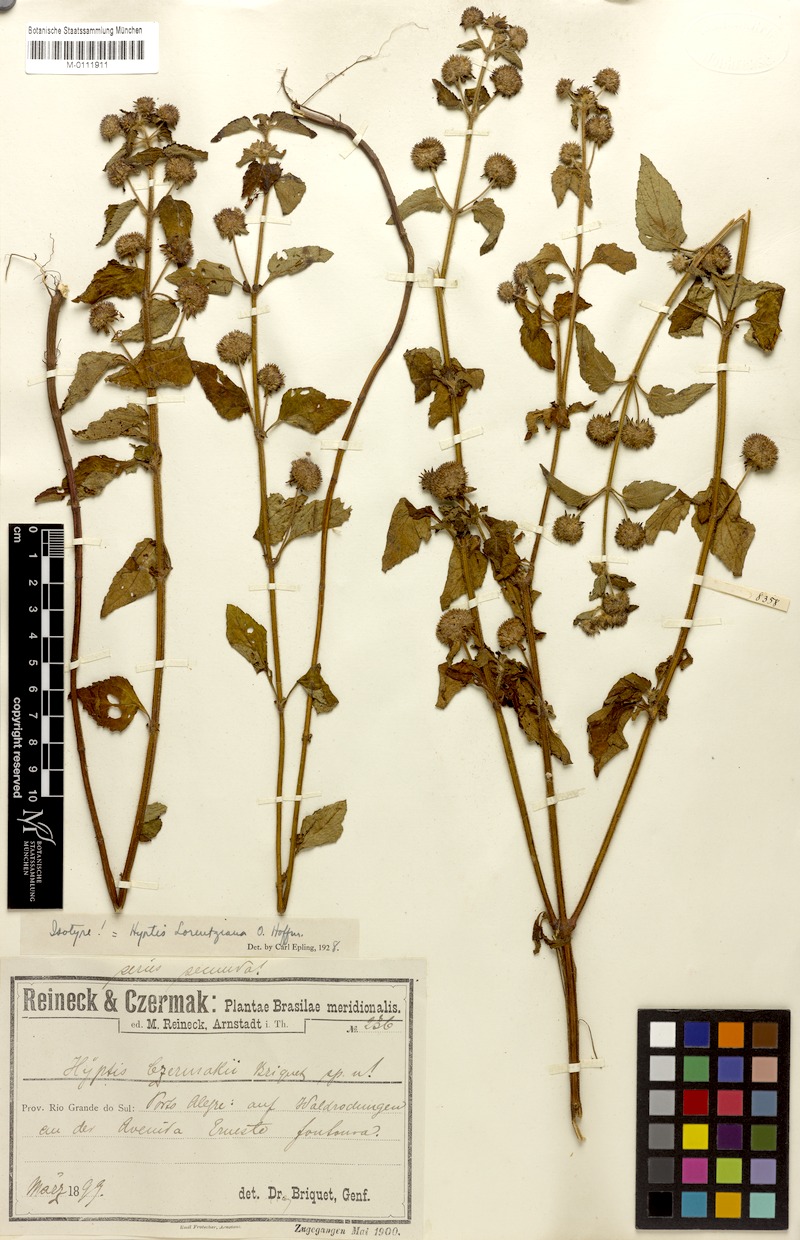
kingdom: Plantae
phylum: Tracheophyta
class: Magnoliopsida
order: Lamiales
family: Lamiaceae
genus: Hyptis
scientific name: Hyptis lorentziana
